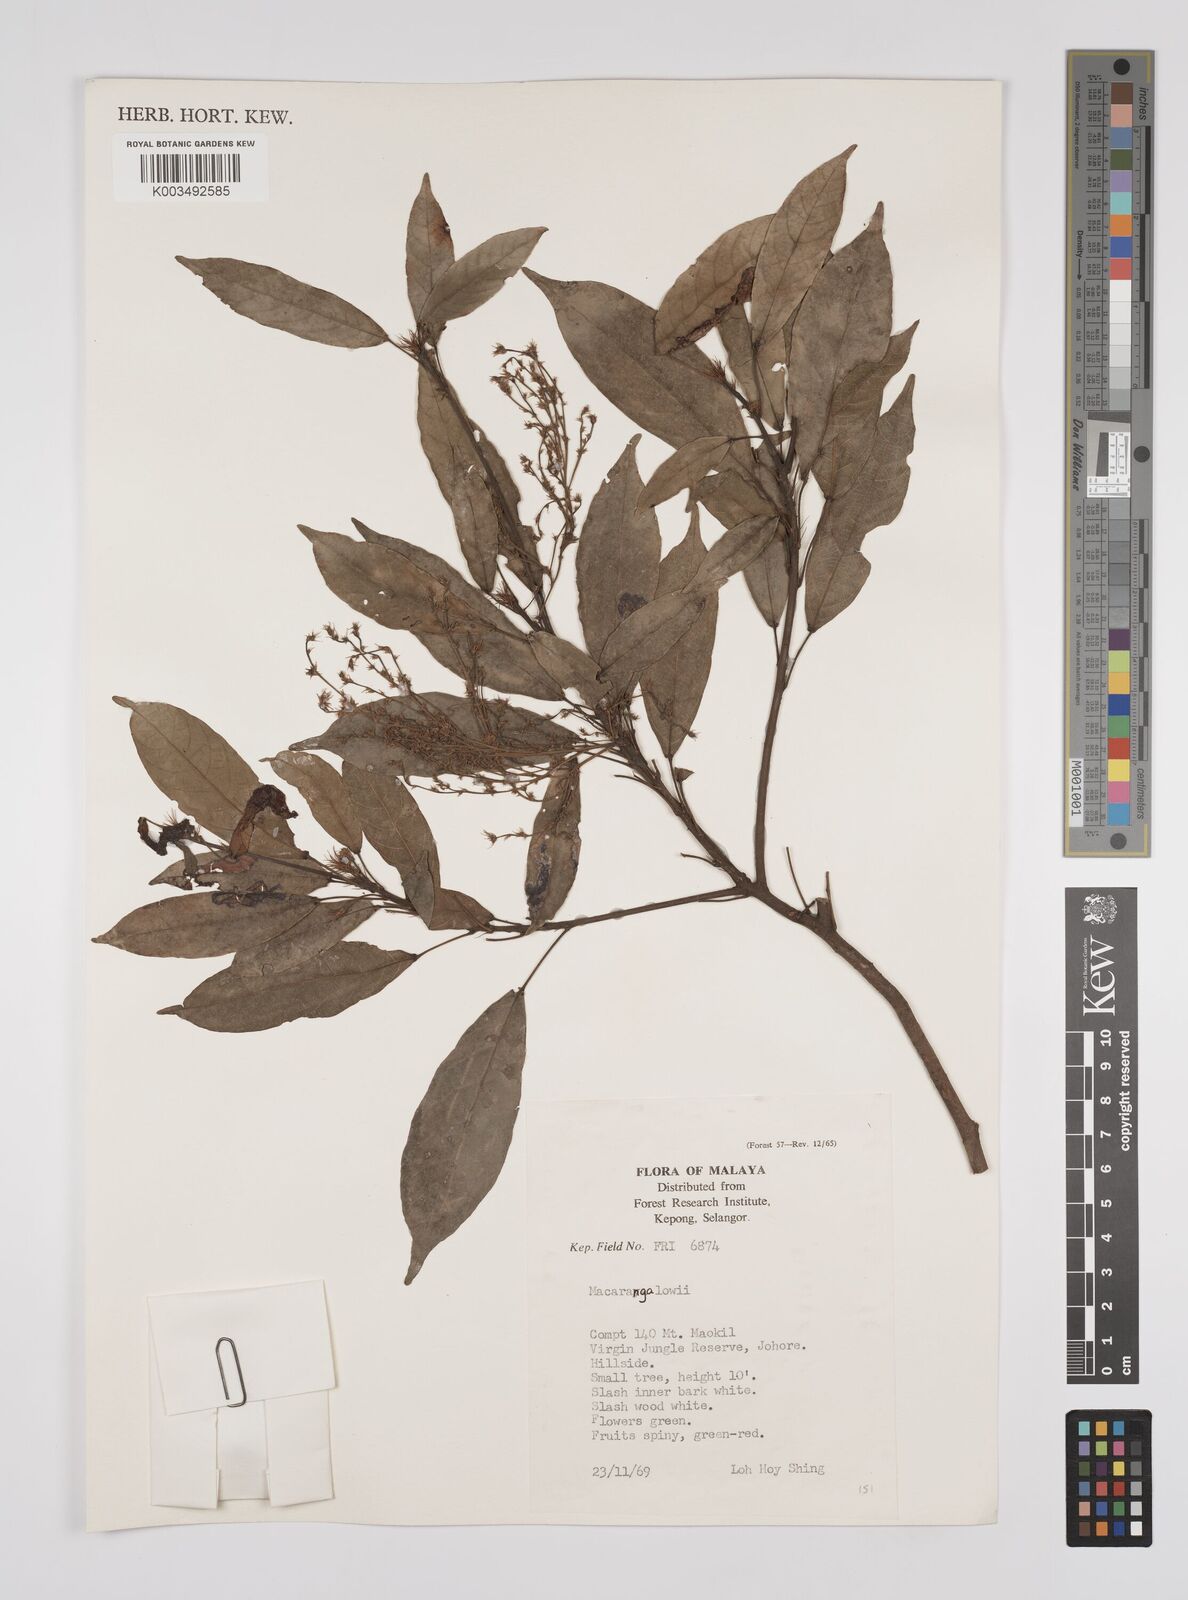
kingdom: Plantae
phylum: Tracheophyta
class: Magnoliopsida
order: Malpighiales
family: Euphorbiaceae
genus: Macaranga
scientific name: Macaranga lowii
